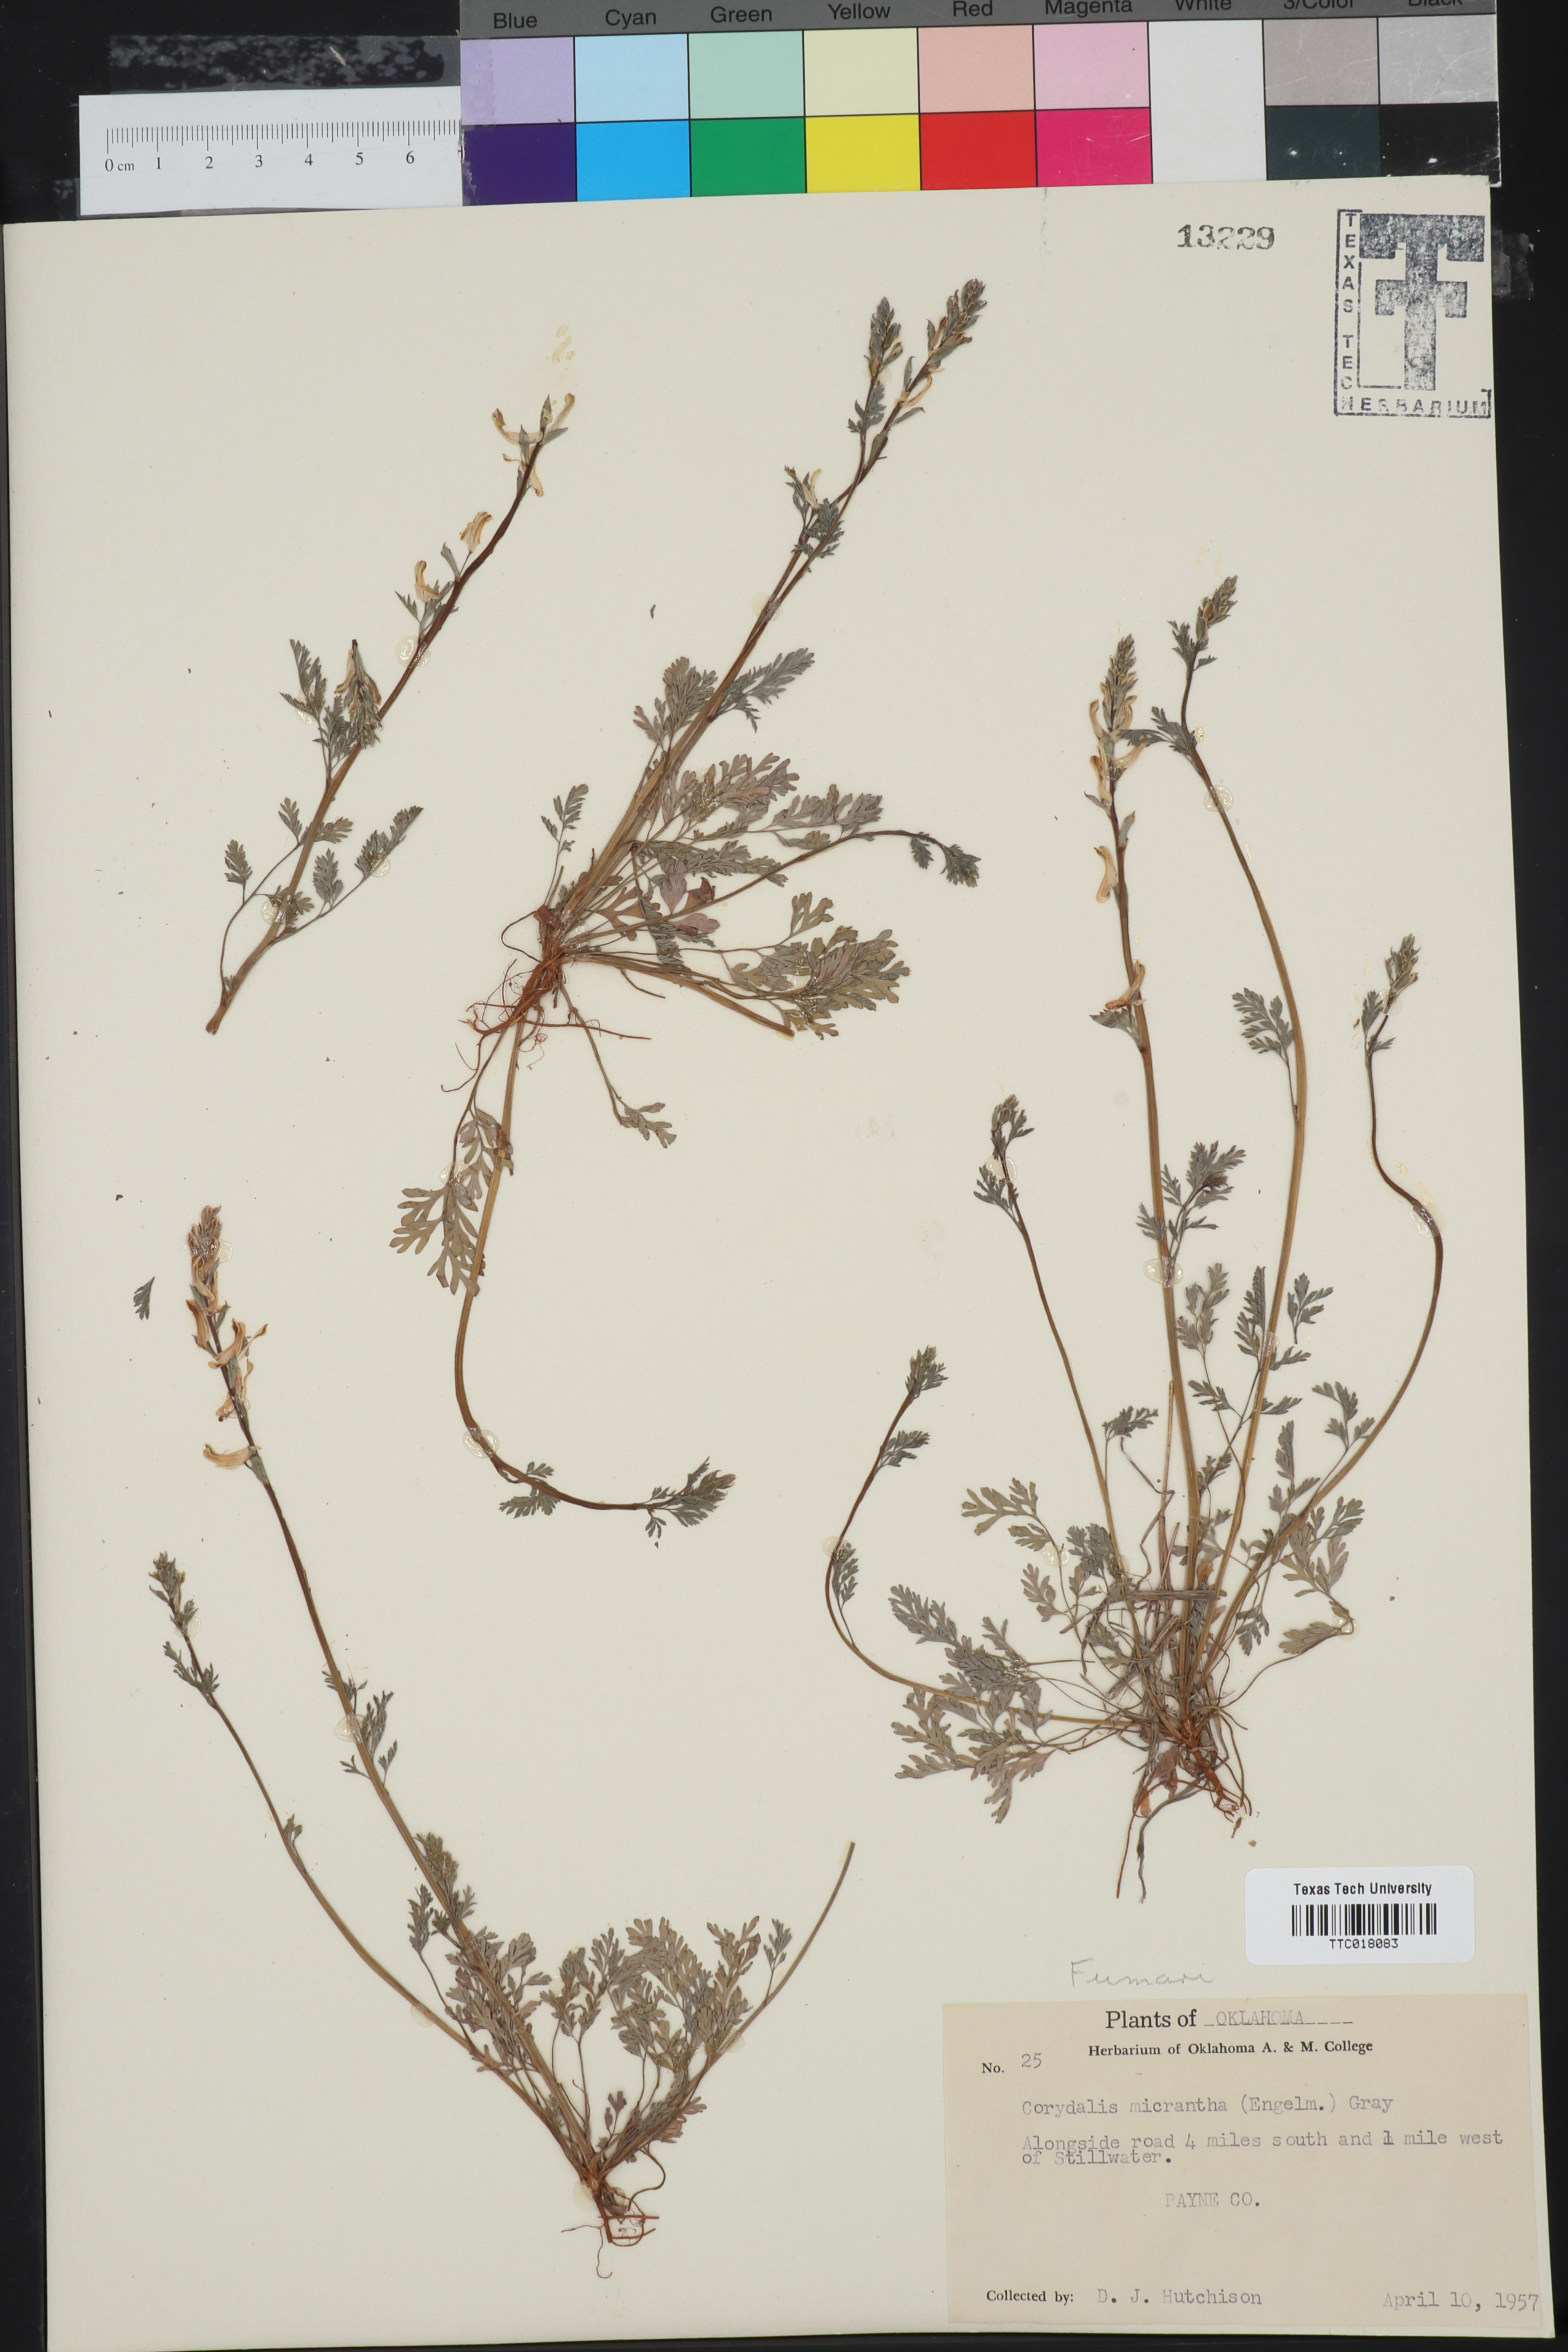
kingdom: Plantae
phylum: Tracheophyta
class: Magnoliopsida
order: Ranunculales
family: Papaveraceae
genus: Corydalis
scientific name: Corydalis micrantha
